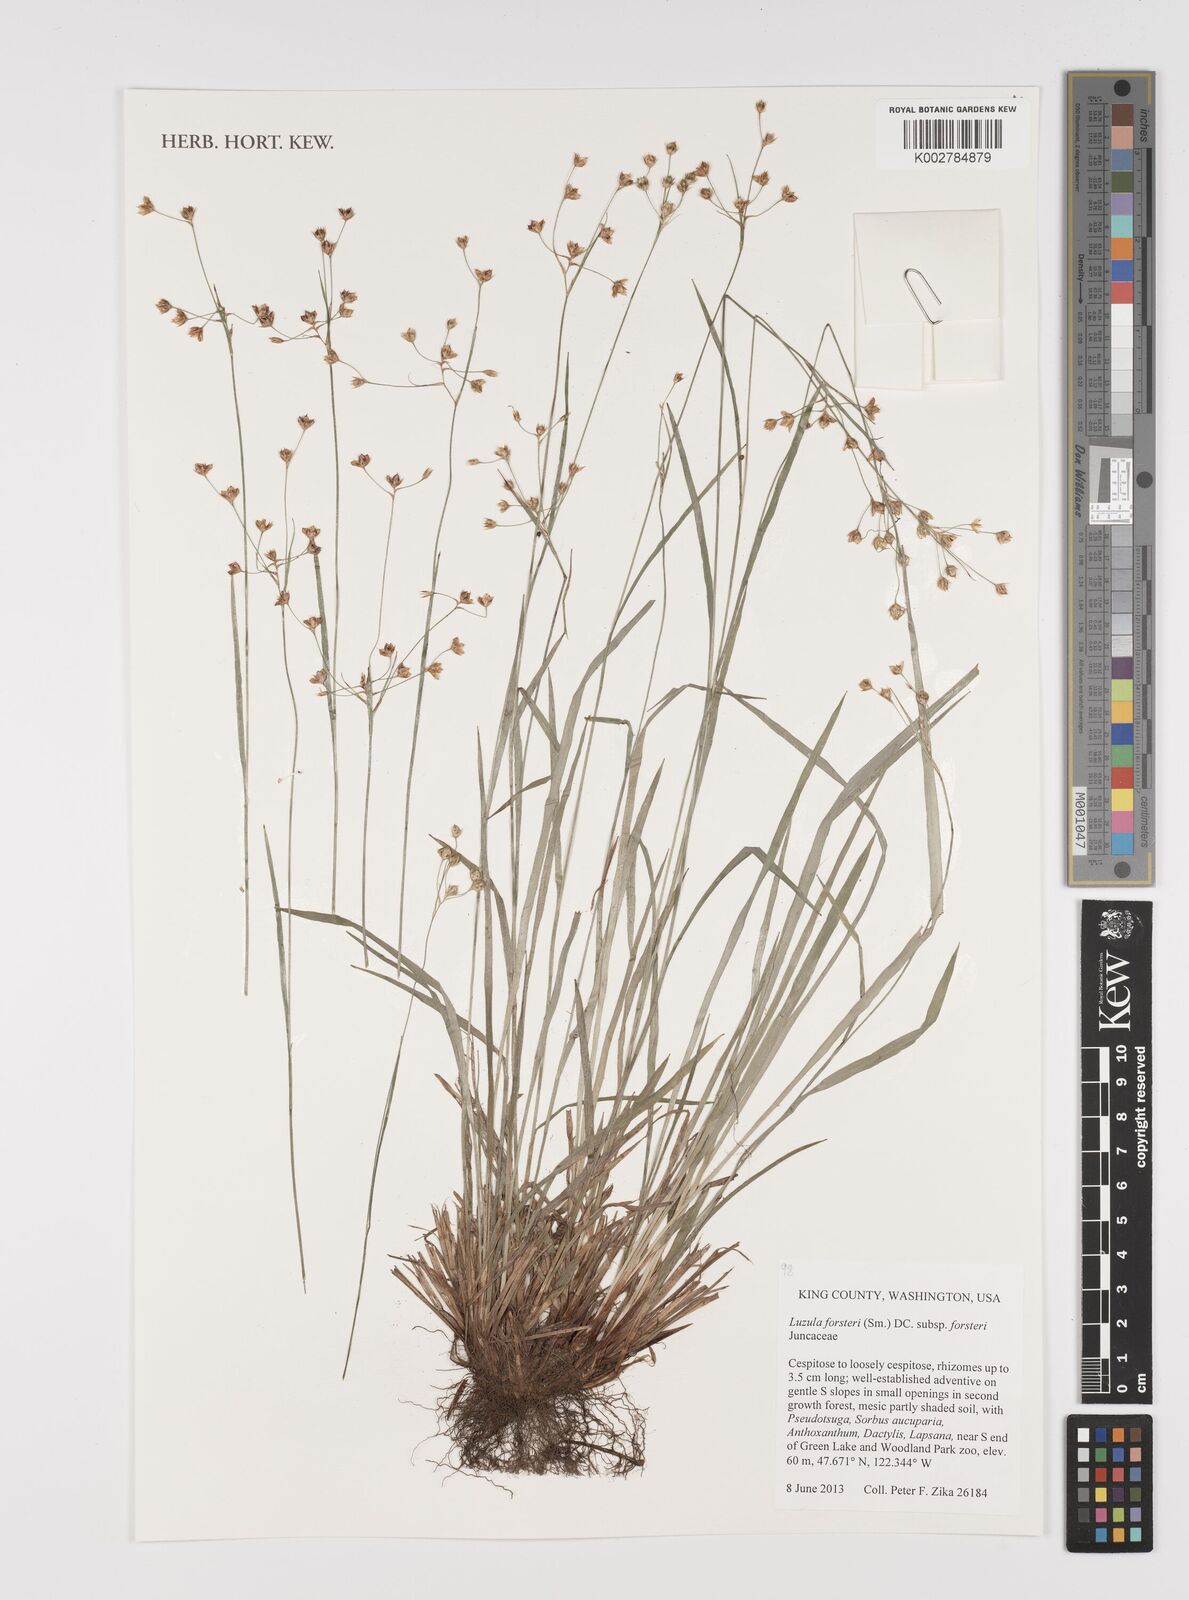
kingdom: Plantae
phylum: Tracheophyta
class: Liliopsida
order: Poales
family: Juncaceae
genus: Luzula
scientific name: Luzula forsteri
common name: Southern wood-rush
